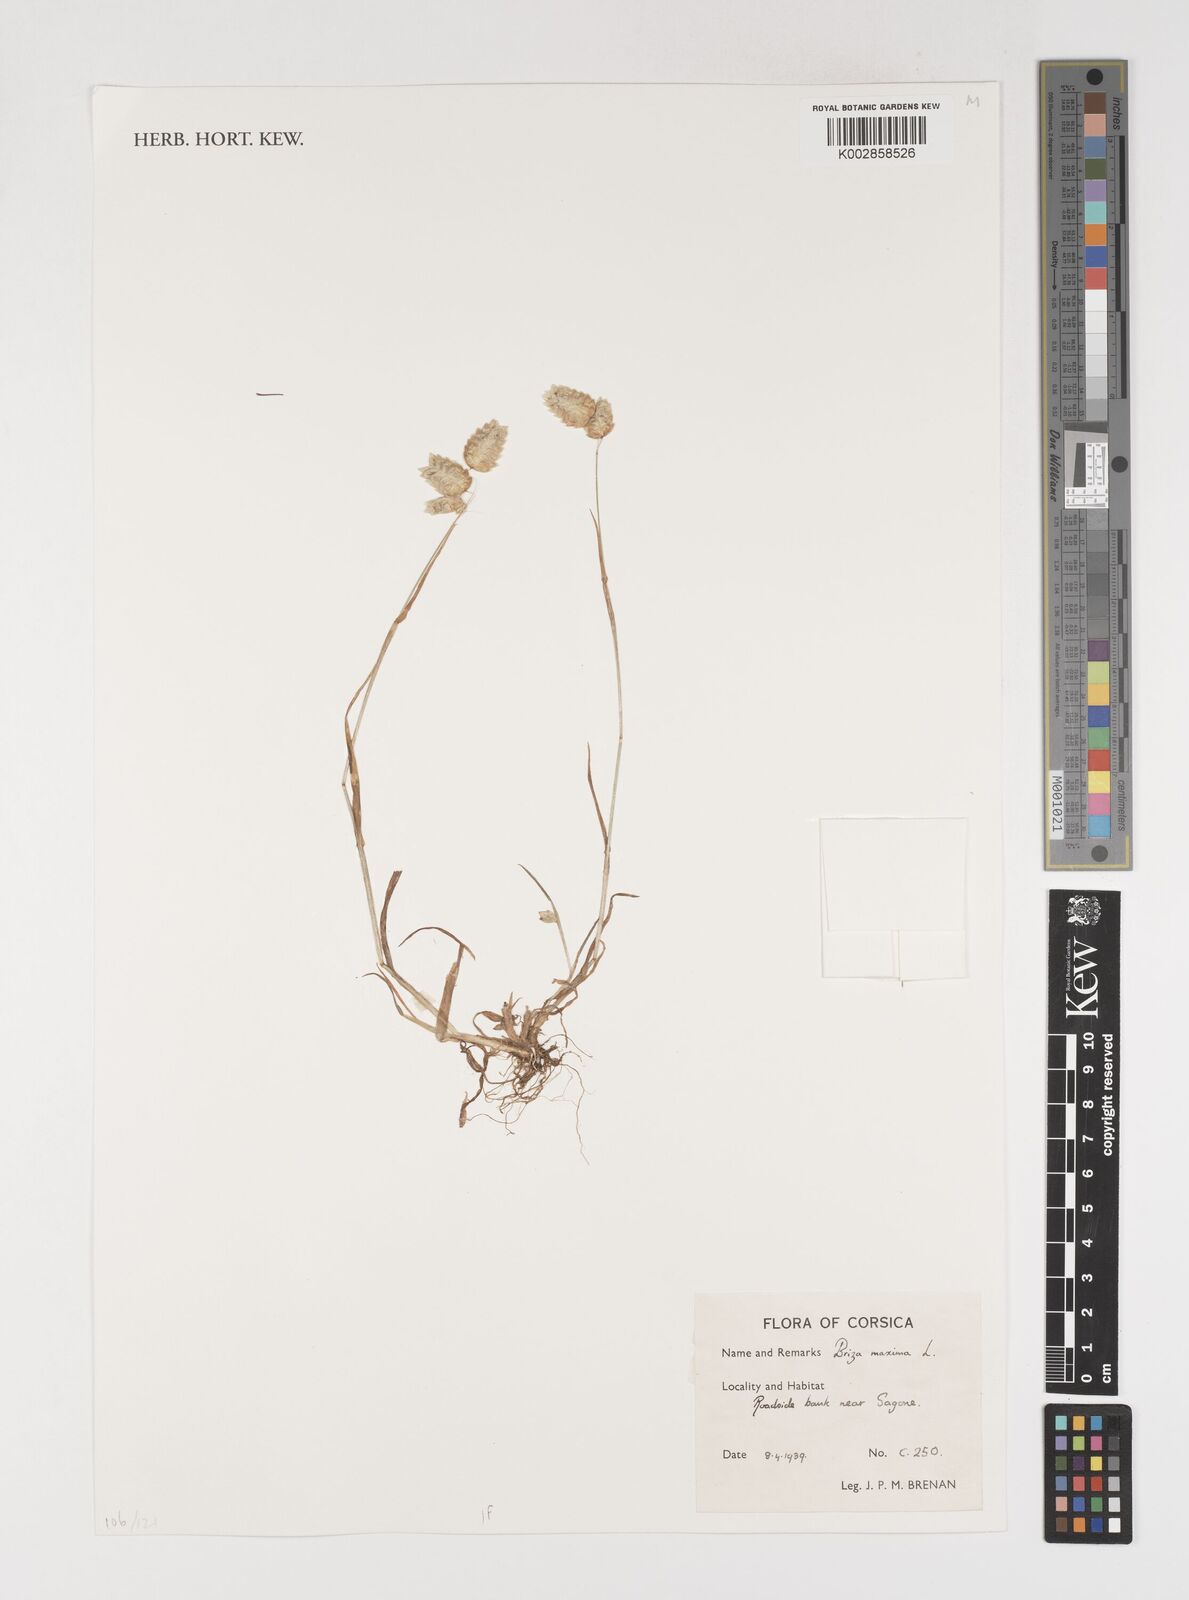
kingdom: Plantae
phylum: Tracheophyta
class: Liliopsida
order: Poales
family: Poaceae
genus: Briza
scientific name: Briza maxima
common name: Big quakinggrass
